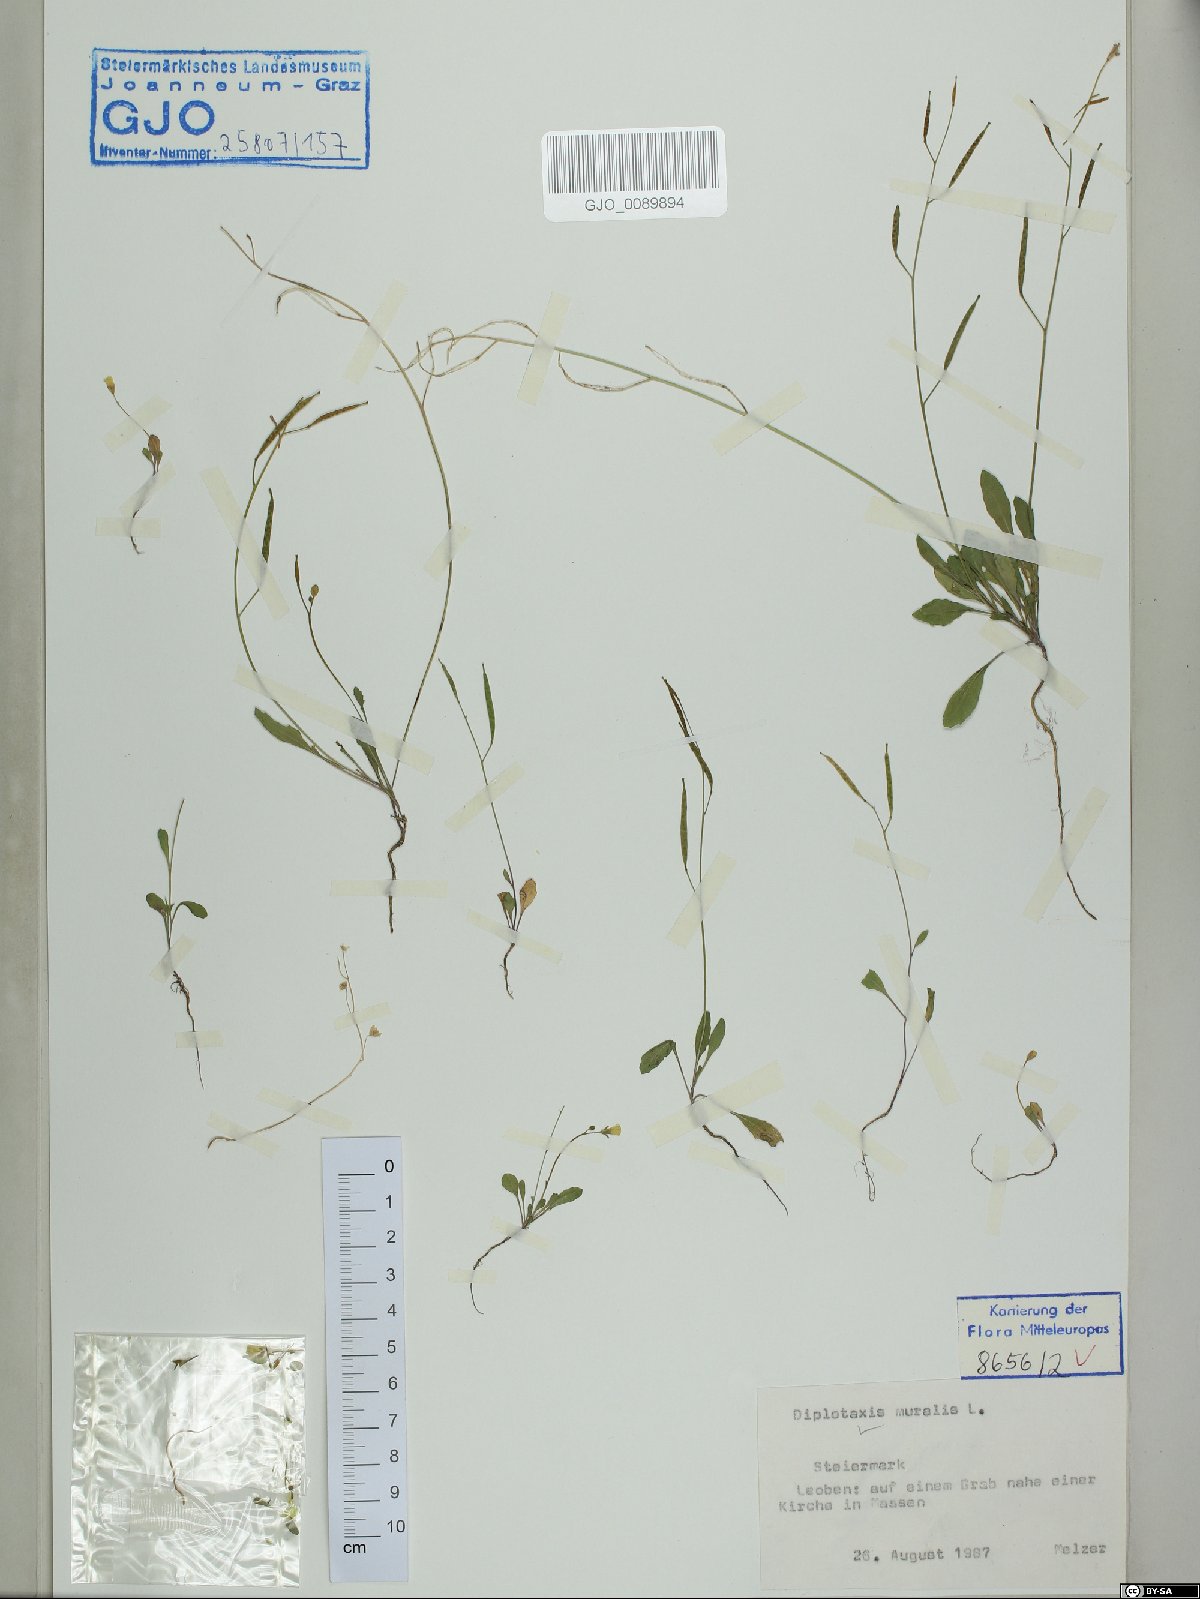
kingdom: Plantae
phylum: Tracheophyta
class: Magnoliopsida
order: Brassicales
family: Brassicaceae
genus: Diplotaxis
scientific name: Diplotaxis muralis
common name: Annual wall-rocket
